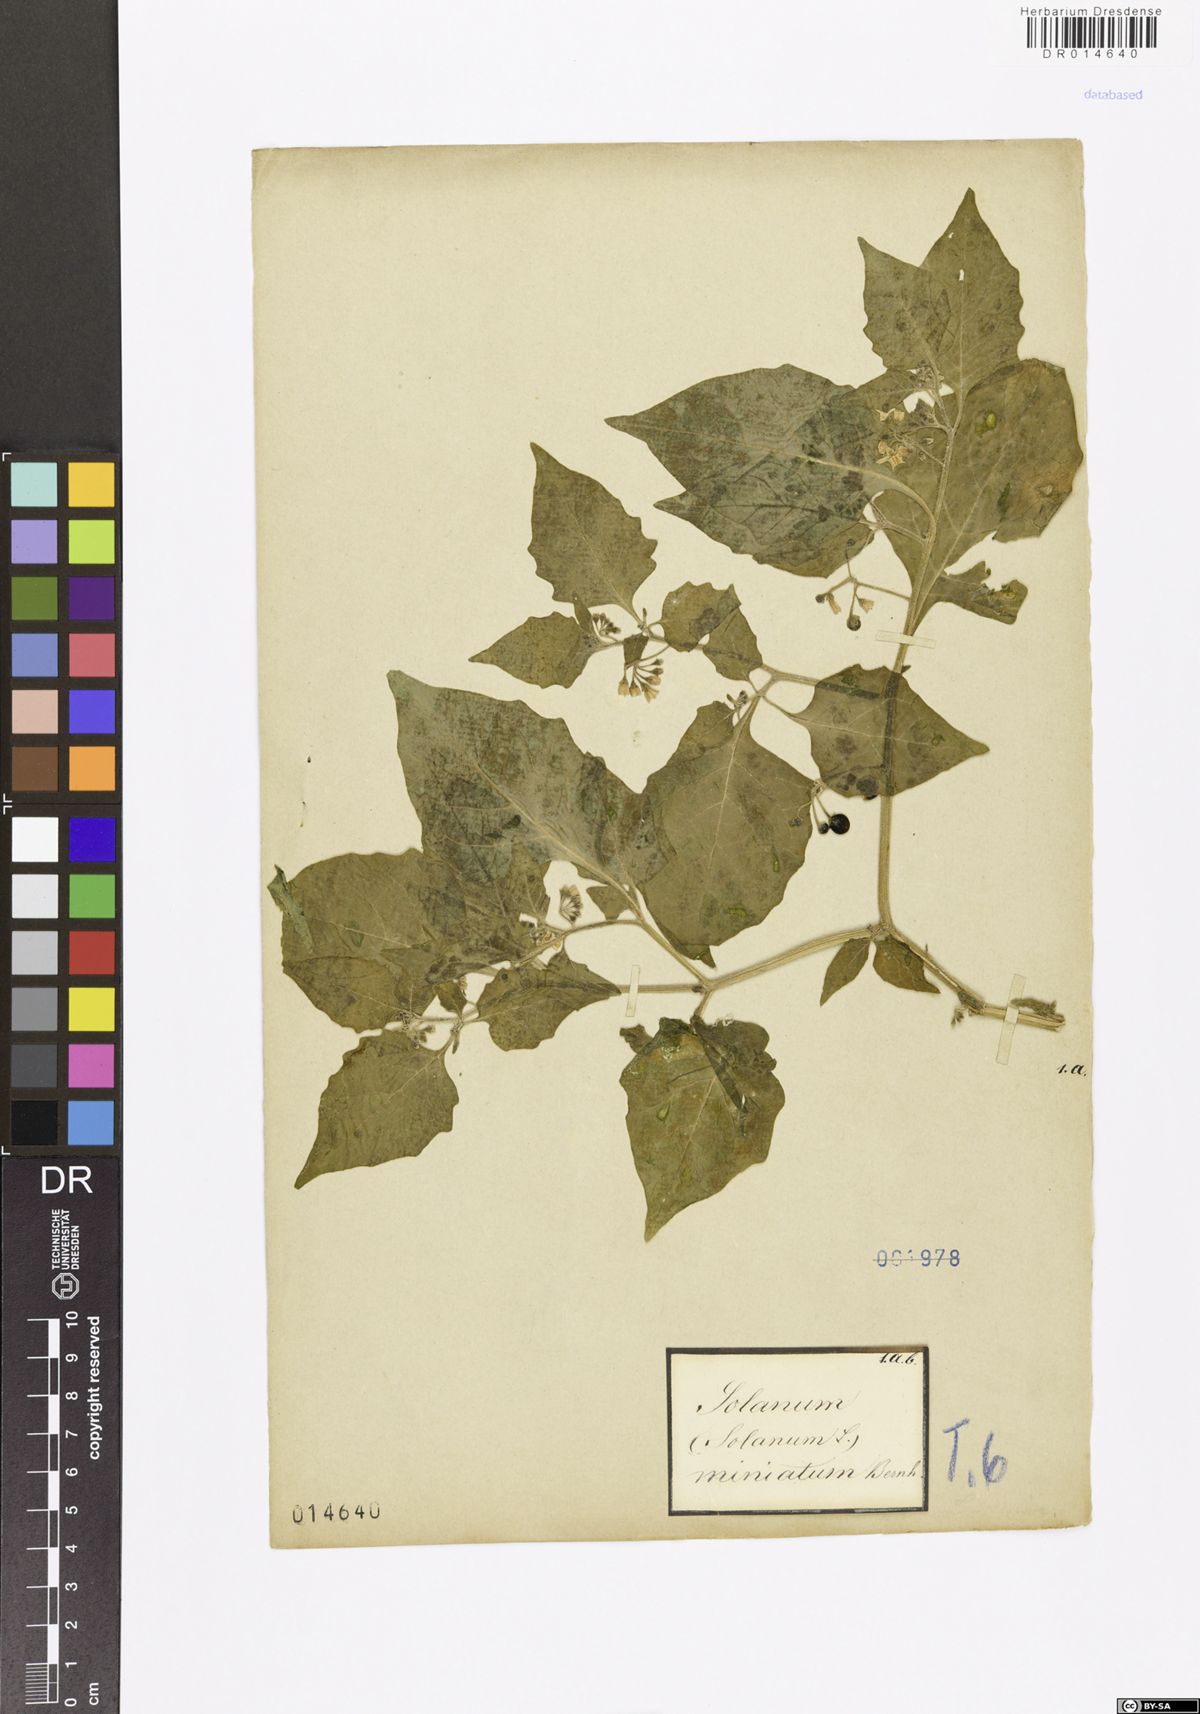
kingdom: Plantae
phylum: Tracheophyta
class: Magnoliopsida
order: Solanales
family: Solanaceae
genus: Solanum
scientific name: Solanum alatum
